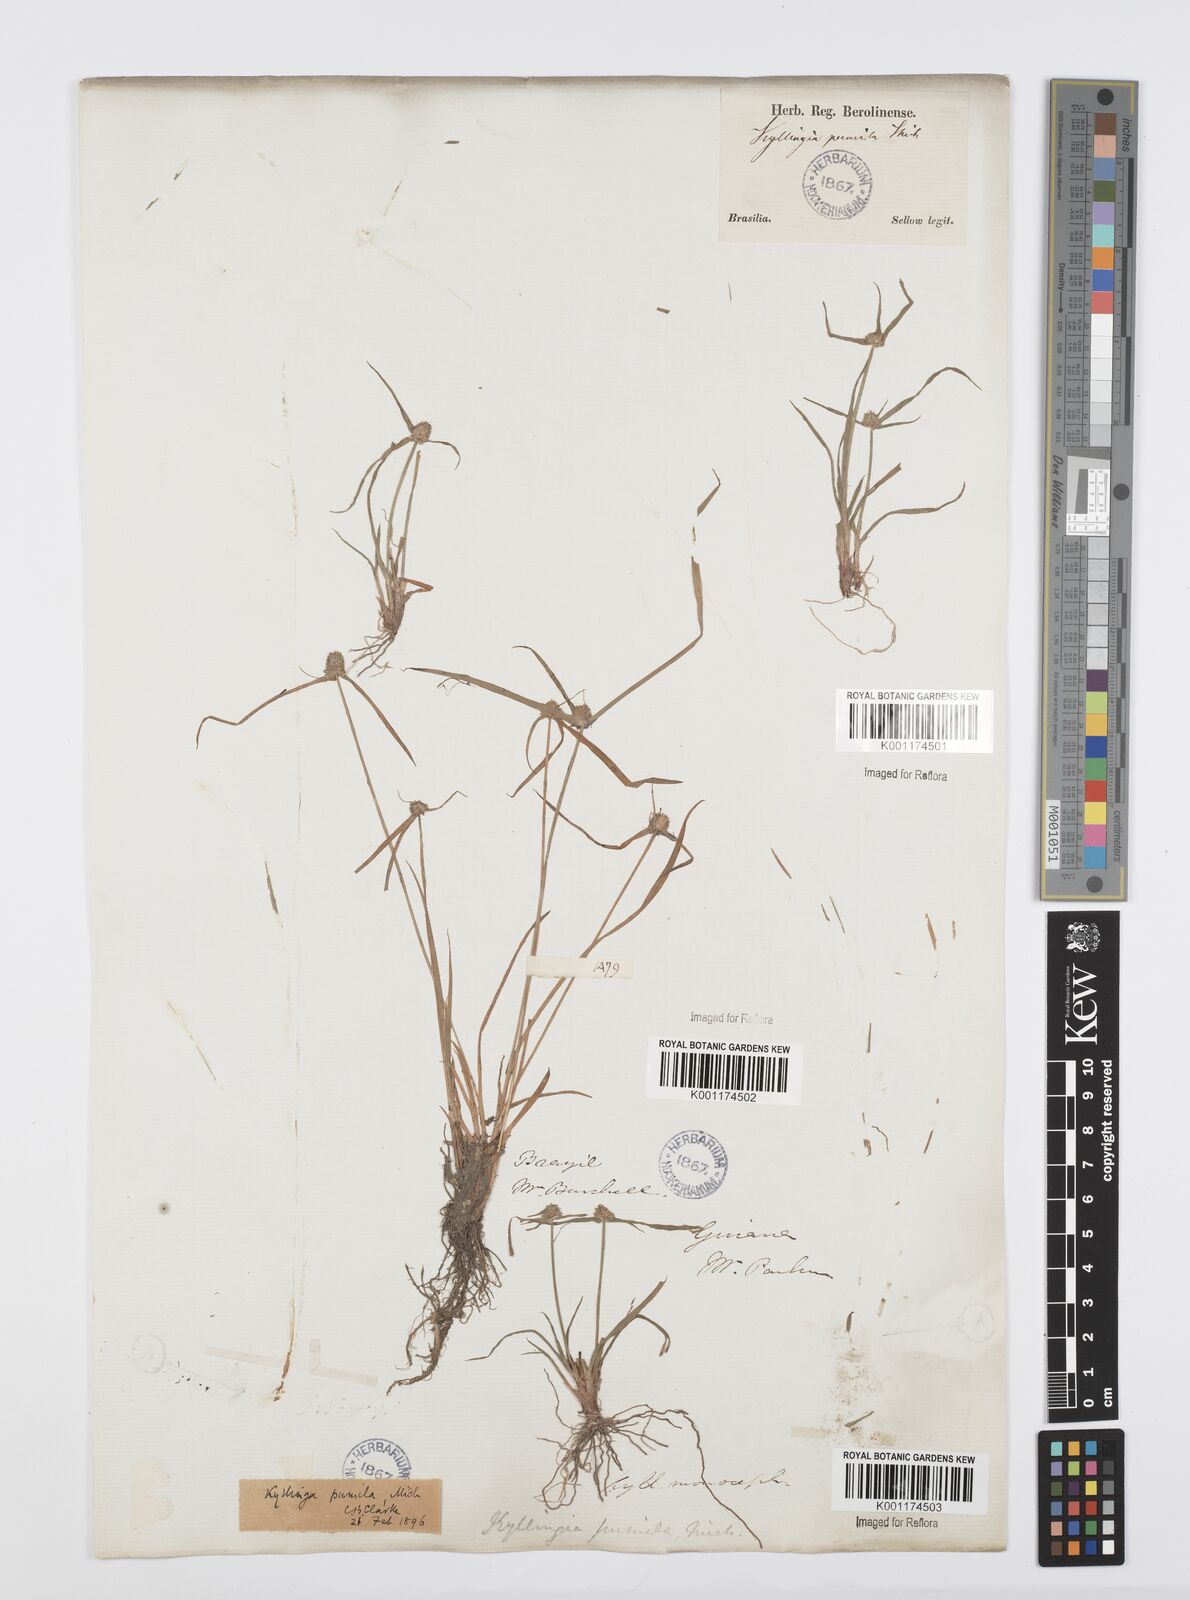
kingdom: Plantae
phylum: Tracheophyta
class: Liliopsida
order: Poales
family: Cyperaceae
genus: Cyperus
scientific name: Cyperus
